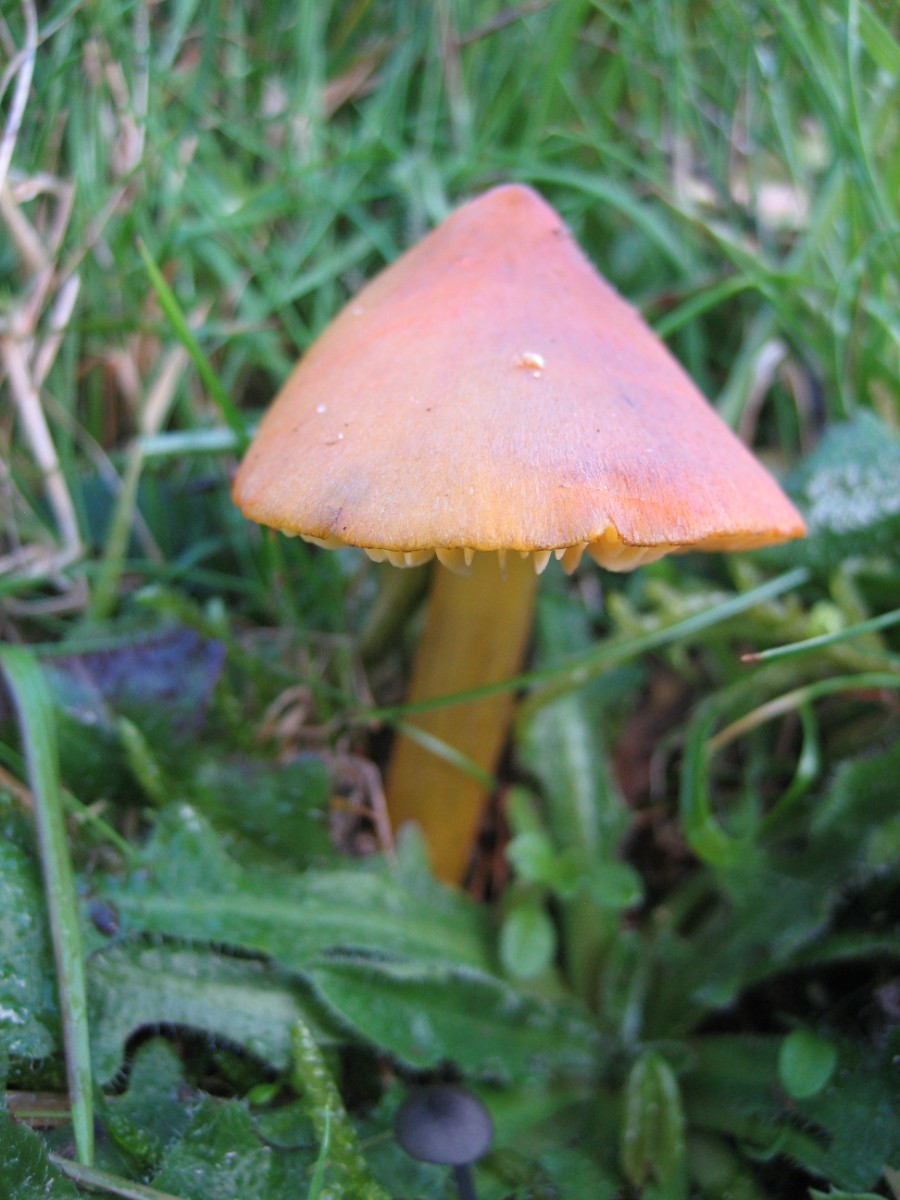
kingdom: Fungi
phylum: Basidiomycota
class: Agaricomycetes
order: Agaricales
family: Hygrophoraceae
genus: Hygrocybe
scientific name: Hygrocybe conica
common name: kegle-vokshat
